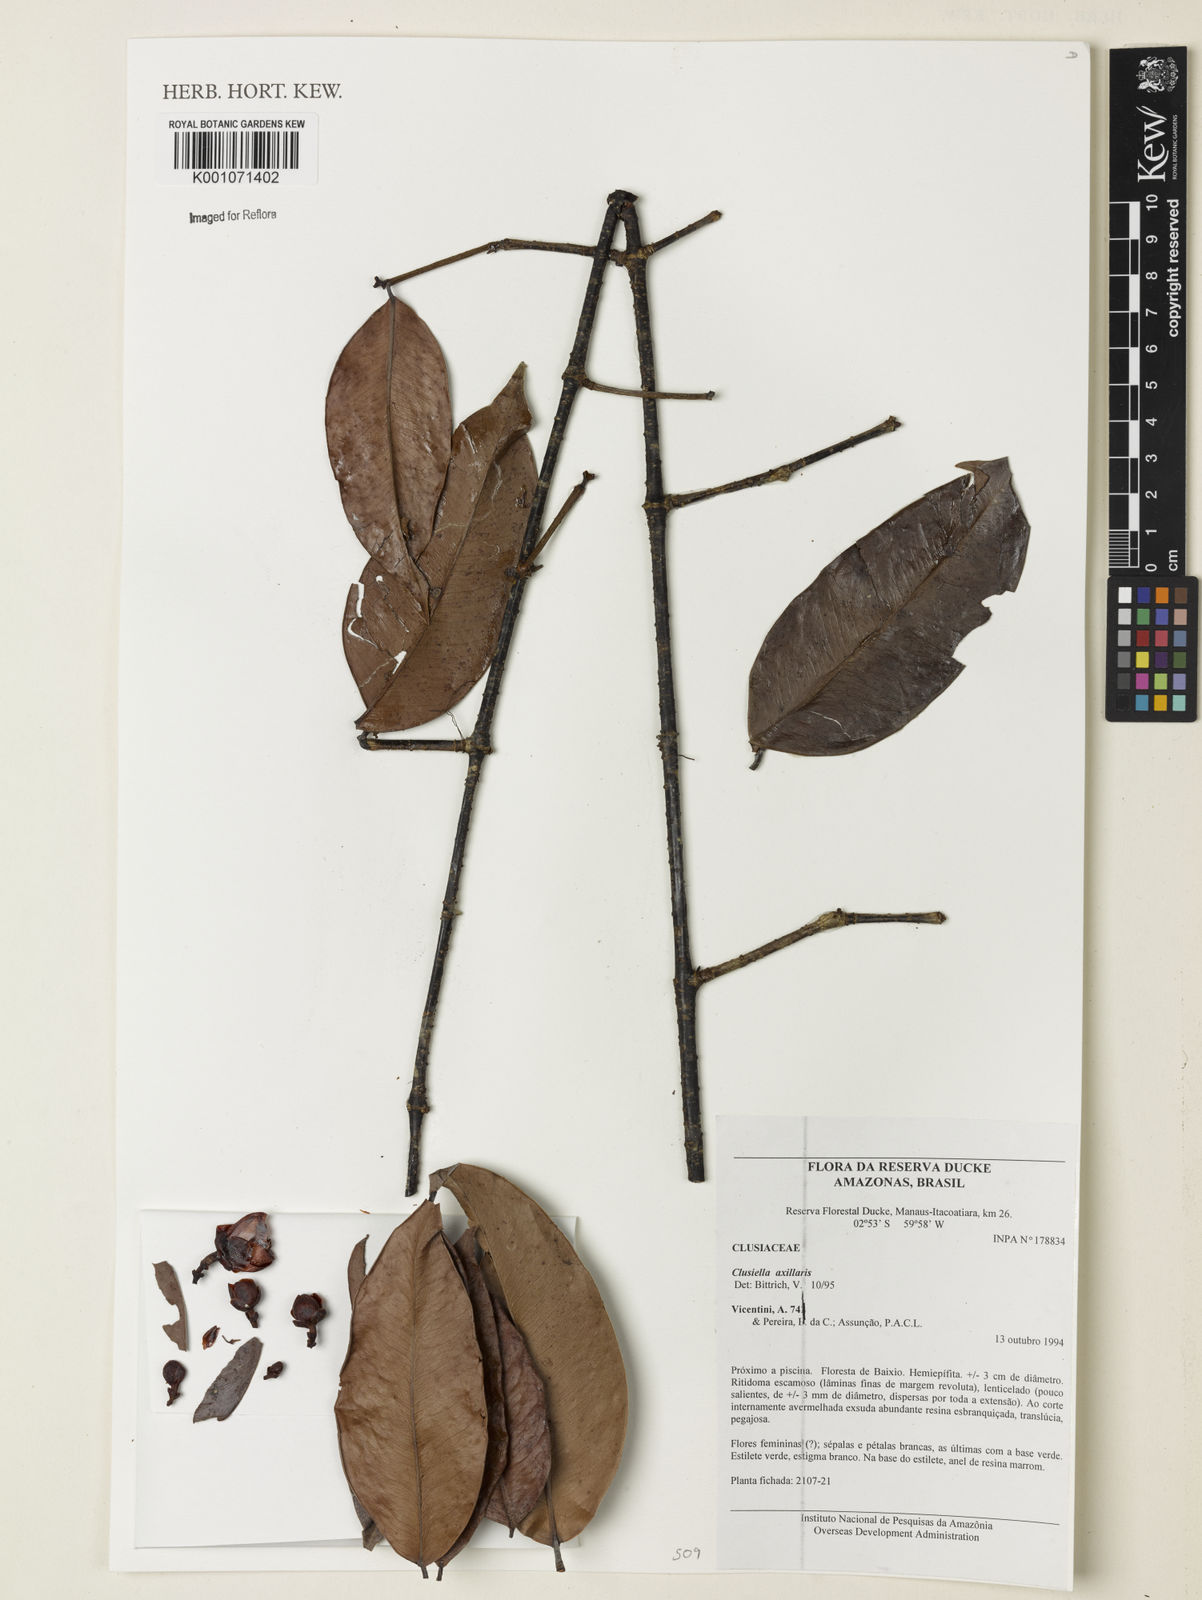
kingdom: Plantae
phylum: Tracheophyta
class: Magnoliopsida
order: Malpighiales
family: Calophyllaceae
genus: Clusiella
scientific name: Clusiella axillaris
